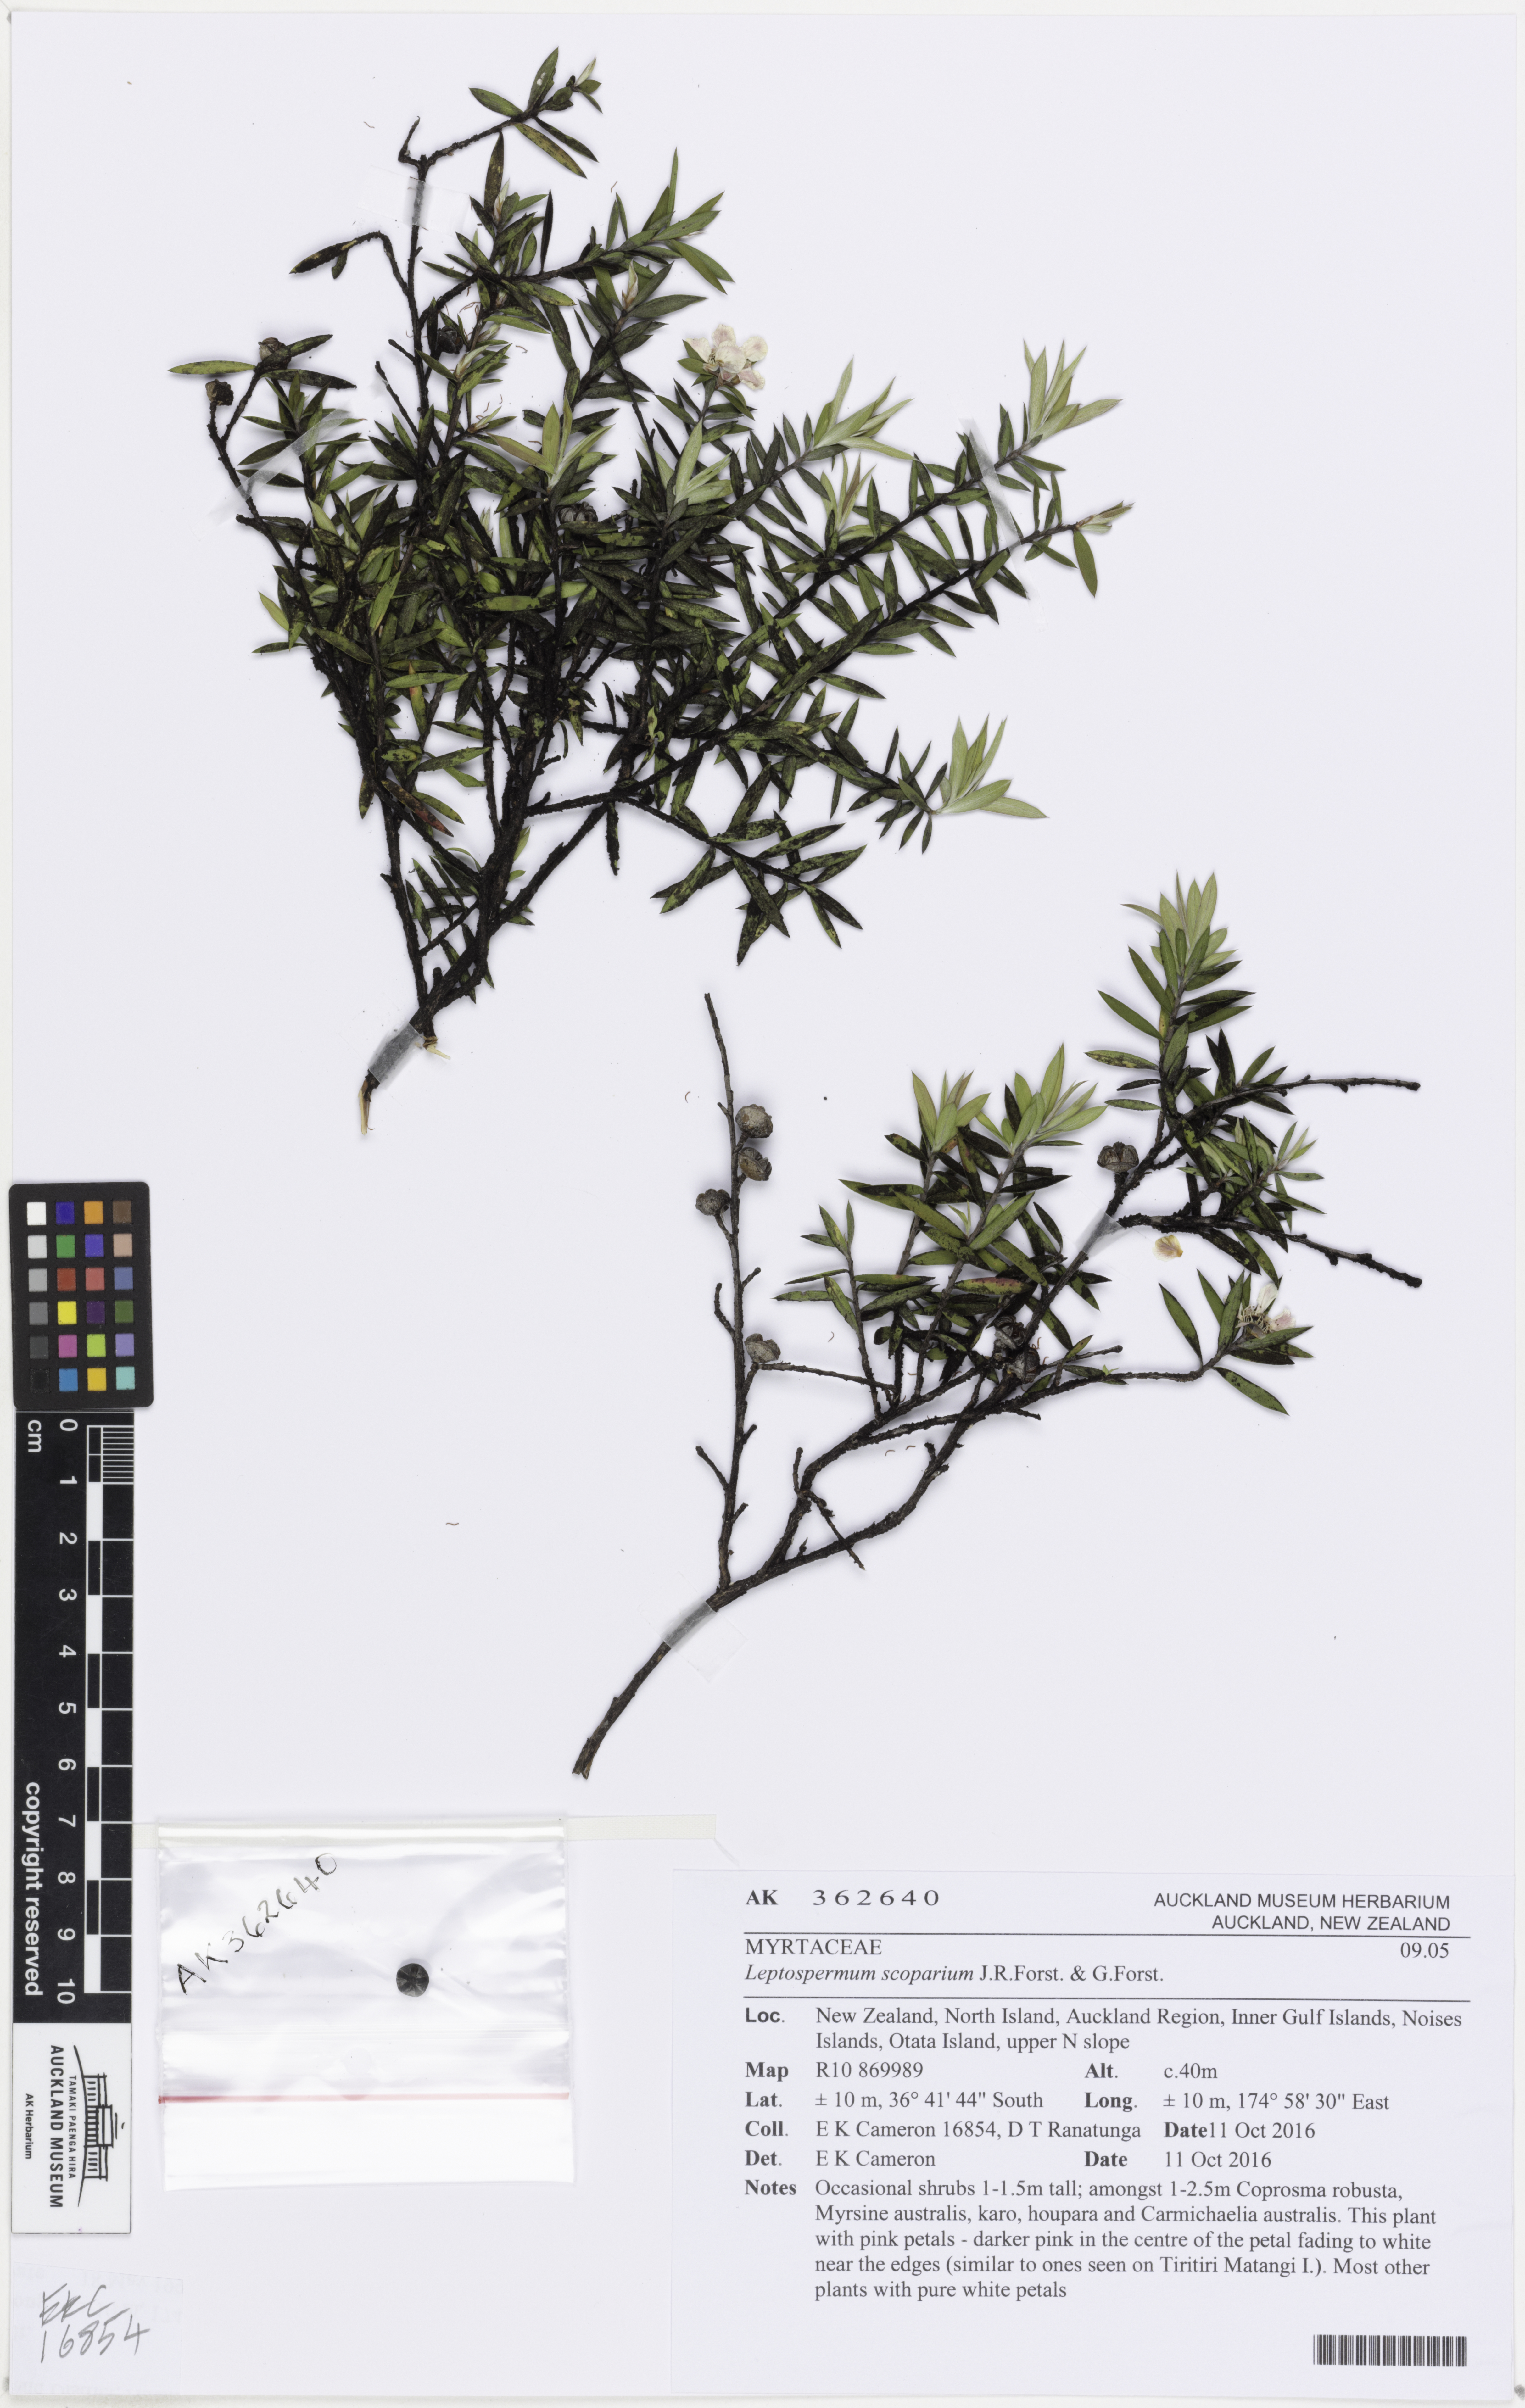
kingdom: Plantae
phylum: Tracheophyta
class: Magnoliopsida
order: Myrtales
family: Myrtaceae
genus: Leptospermum
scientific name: Leptospermum scoparium
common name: Broom tea-tree
